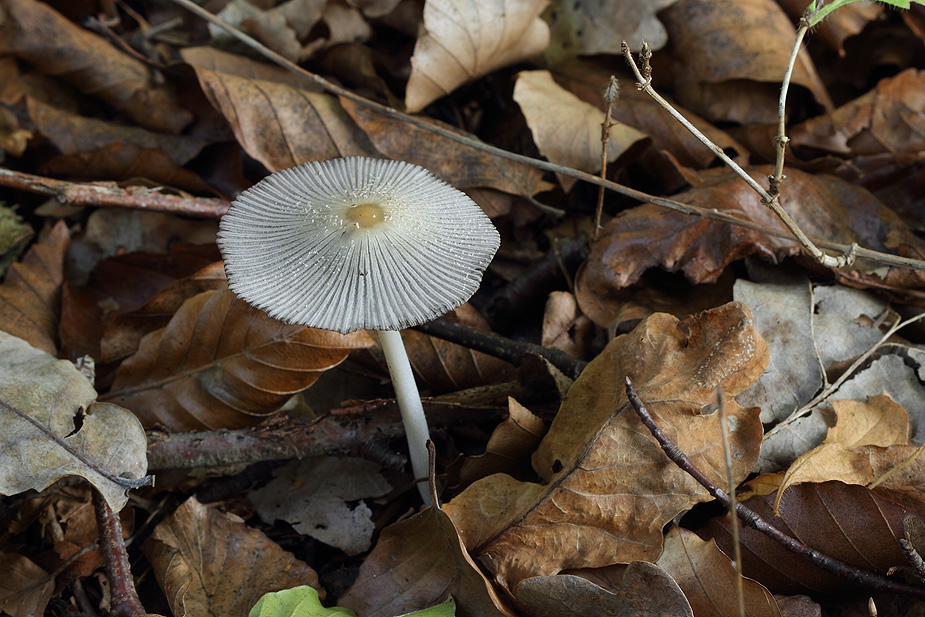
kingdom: Fungi
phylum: Basidiomycota
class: Agaricomycetes
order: Agaricales
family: Psathyrellaceae
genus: Coprinellus
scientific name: Coprinellus domesticus
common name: hus-blækhat
